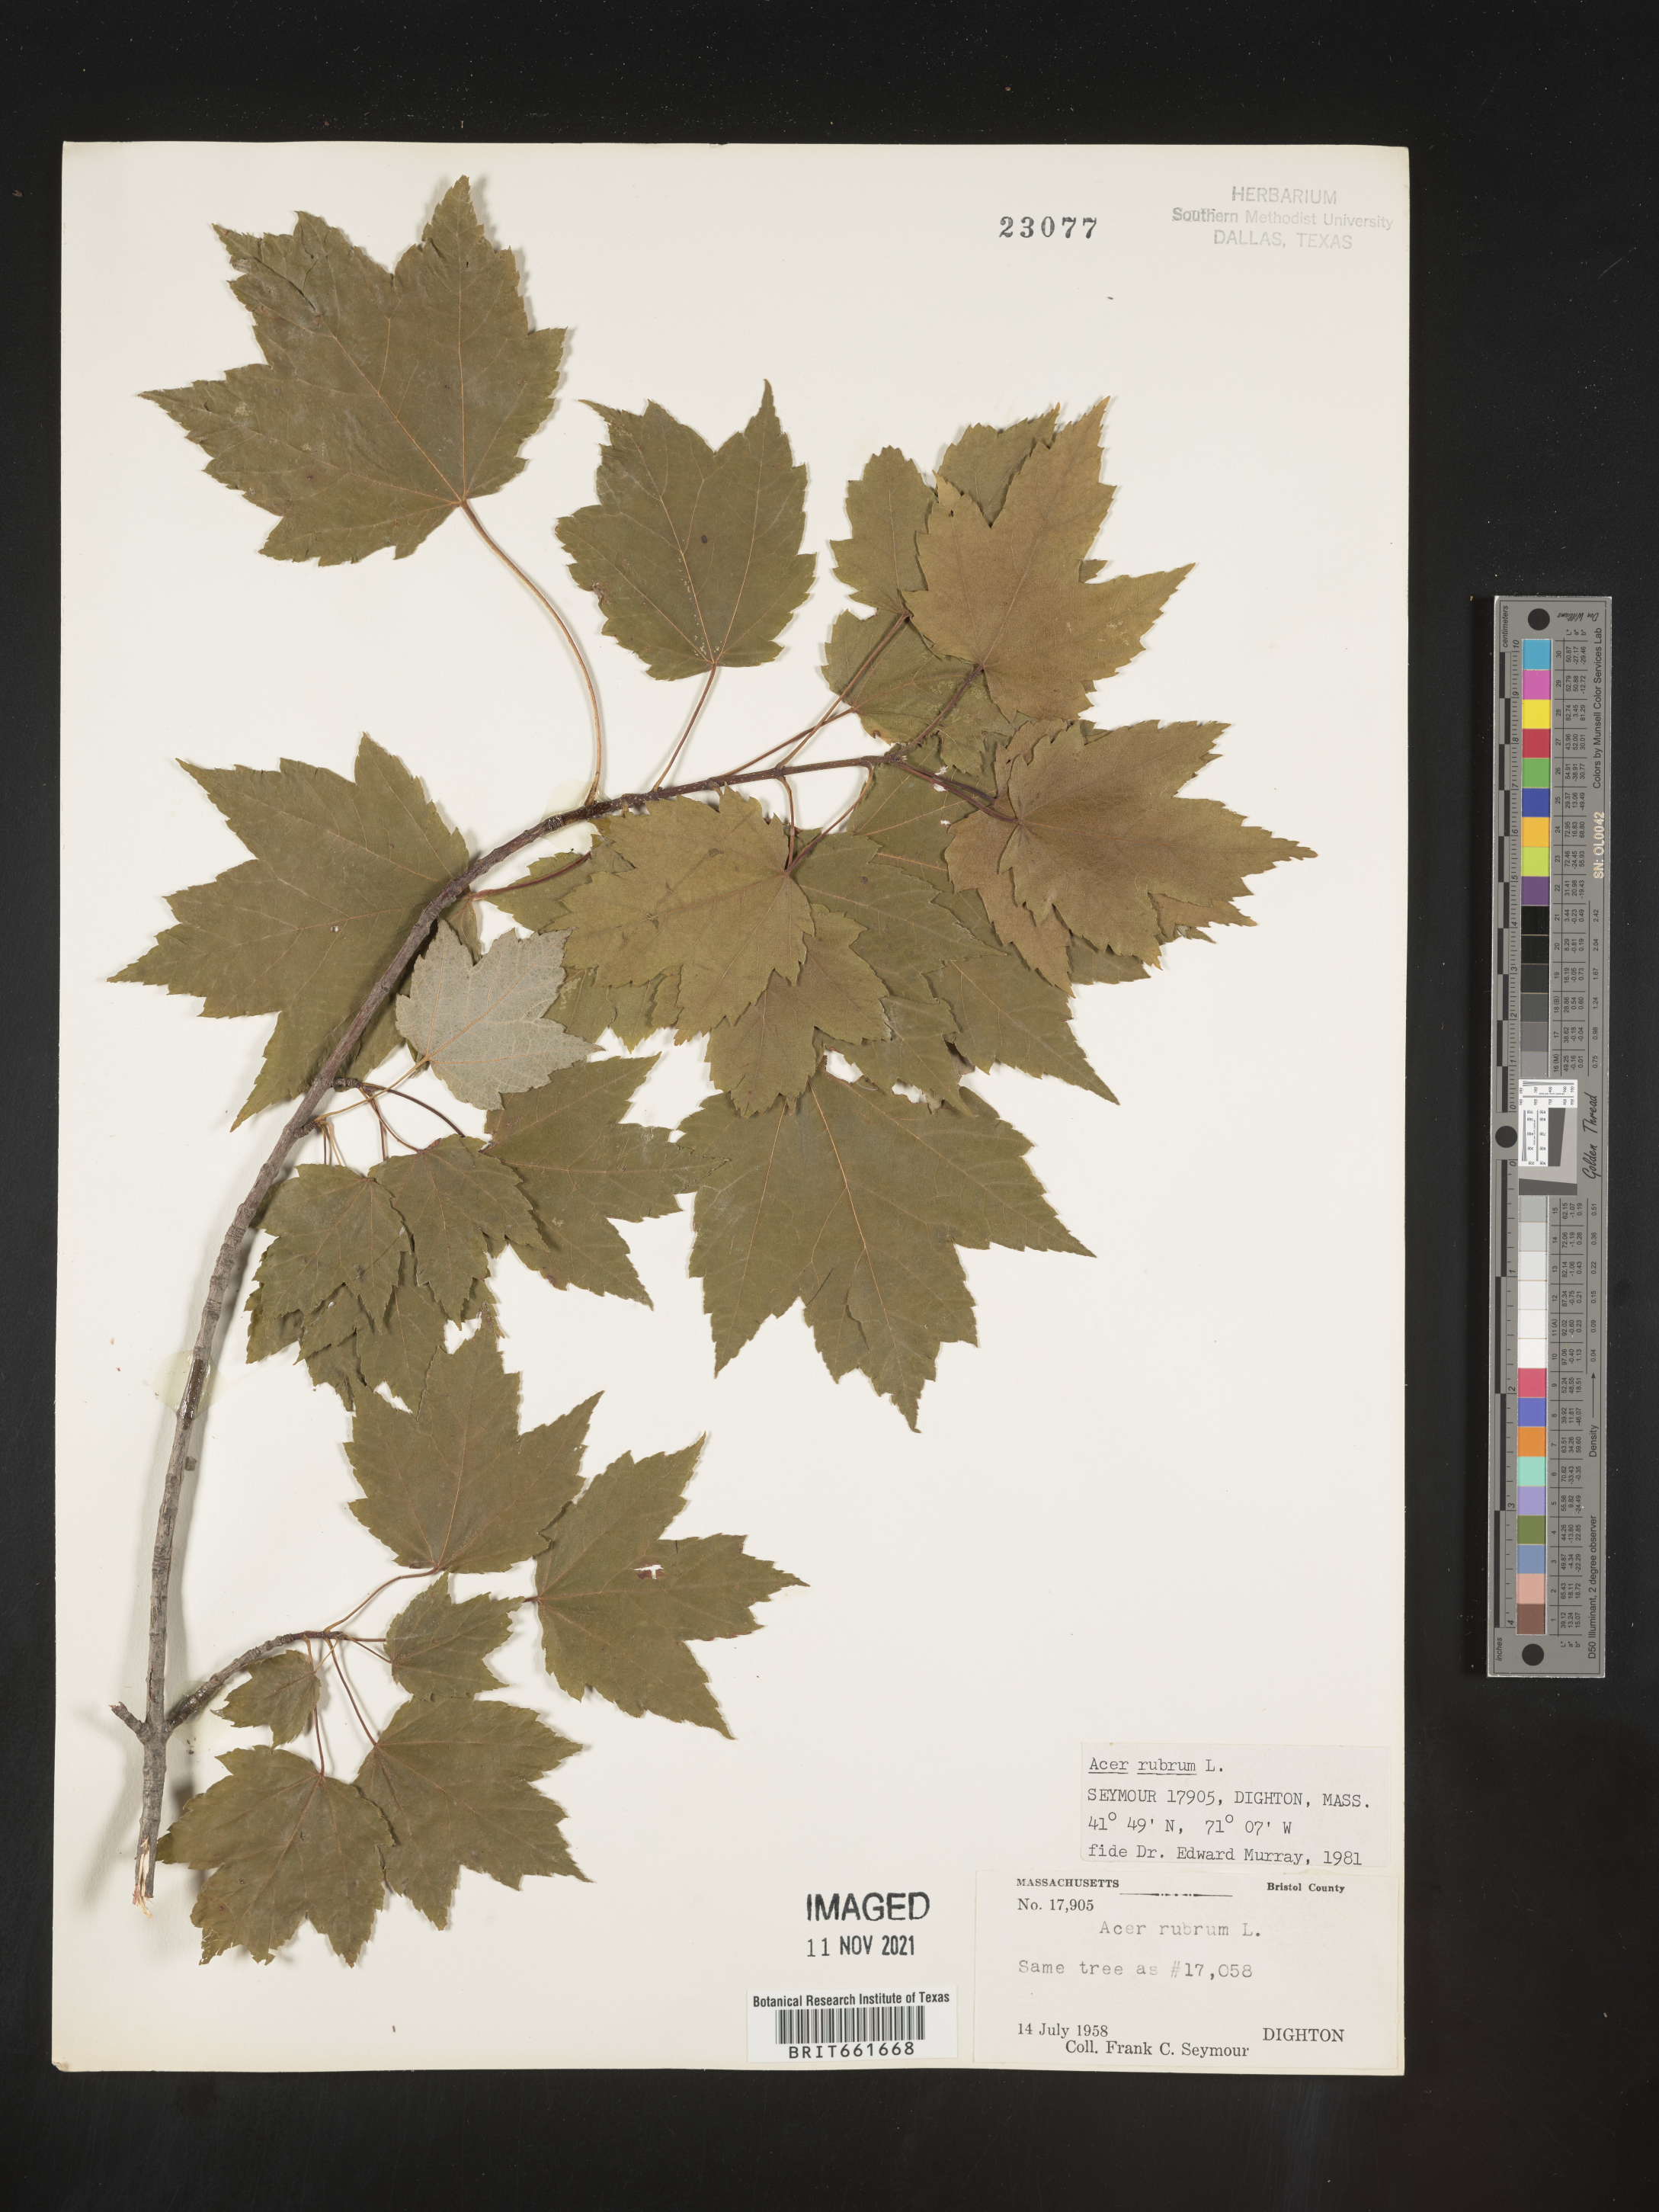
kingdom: Plantae
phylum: Tracheophyta
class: Magnoliopsida
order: Sapindales
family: Sapindaceae
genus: Acer
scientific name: Acer rubrum
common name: Red maple
